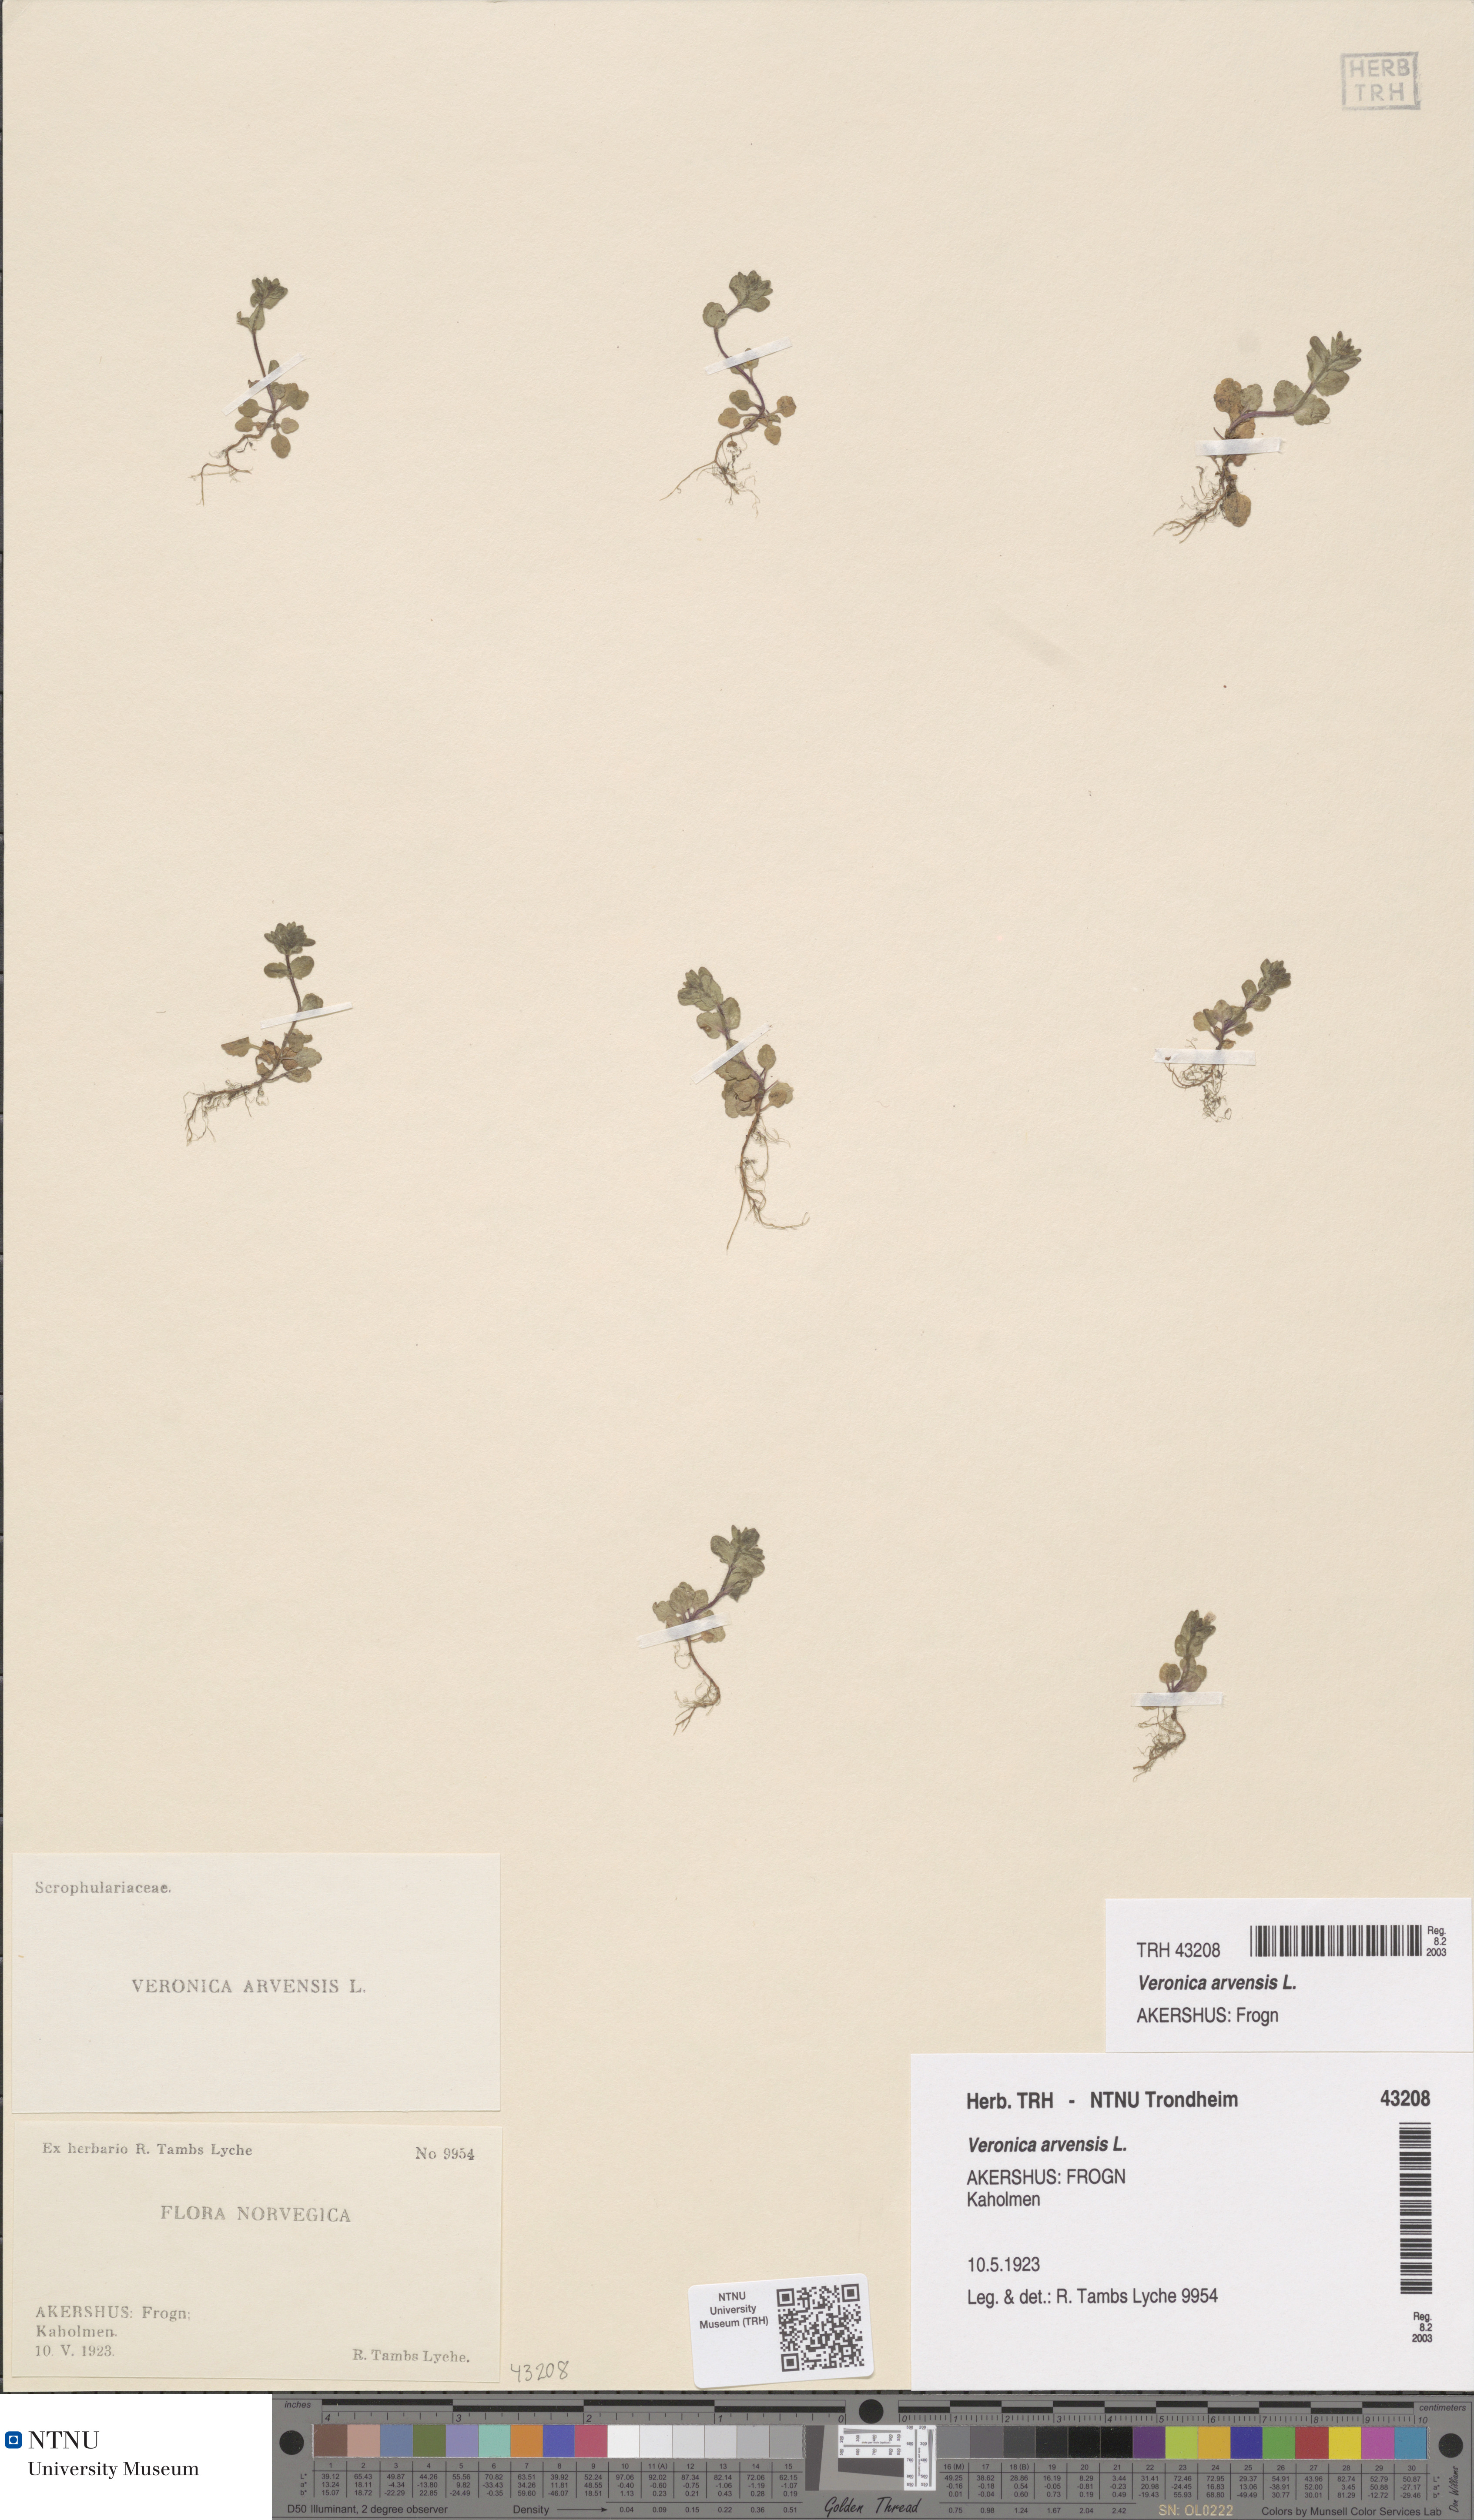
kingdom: Plantae
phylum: Tracheophyta
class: Magnoliopsida
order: Lamiales
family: Plantaginaceae
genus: Veronica
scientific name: Veronica arvensis
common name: Corn speedwell
